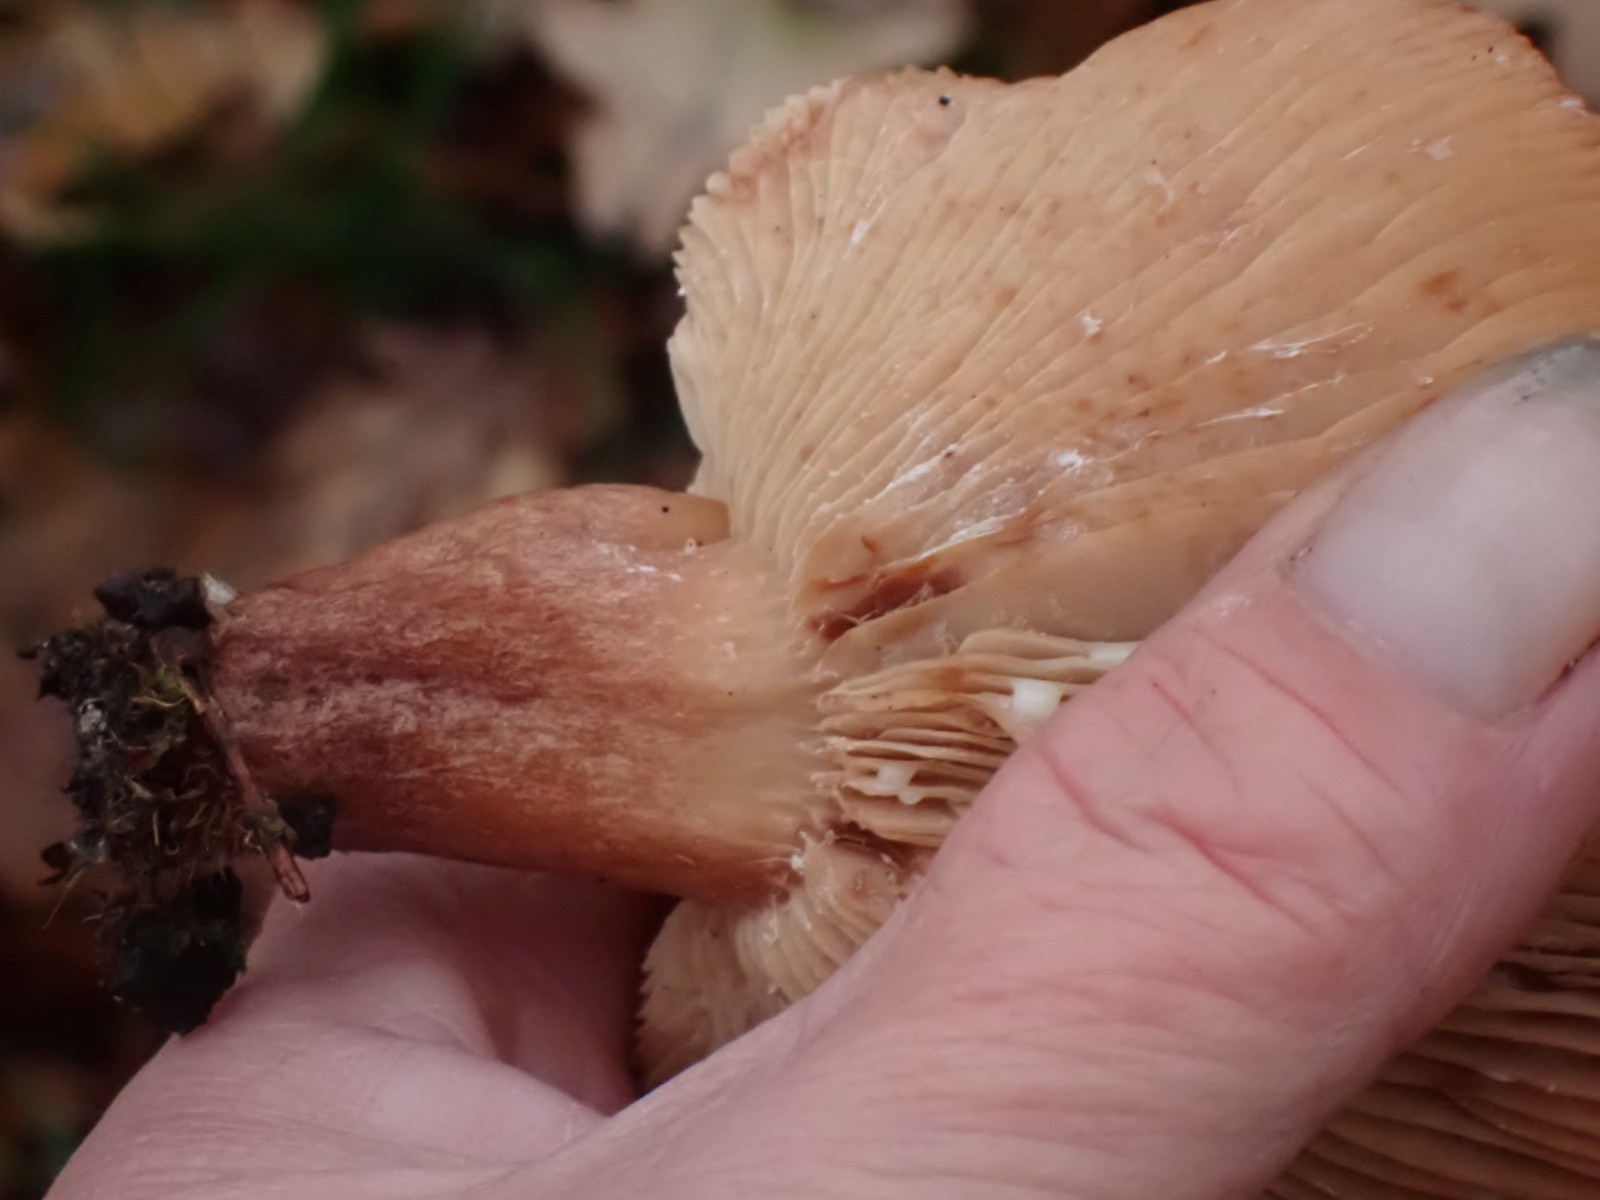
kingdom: Fungi
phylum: Basidiomycota
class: Agaricomycetes
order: Russulales
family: Russulaceae
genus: Lactarius
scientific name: Lactarius quietus
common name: ege-mælkehat
